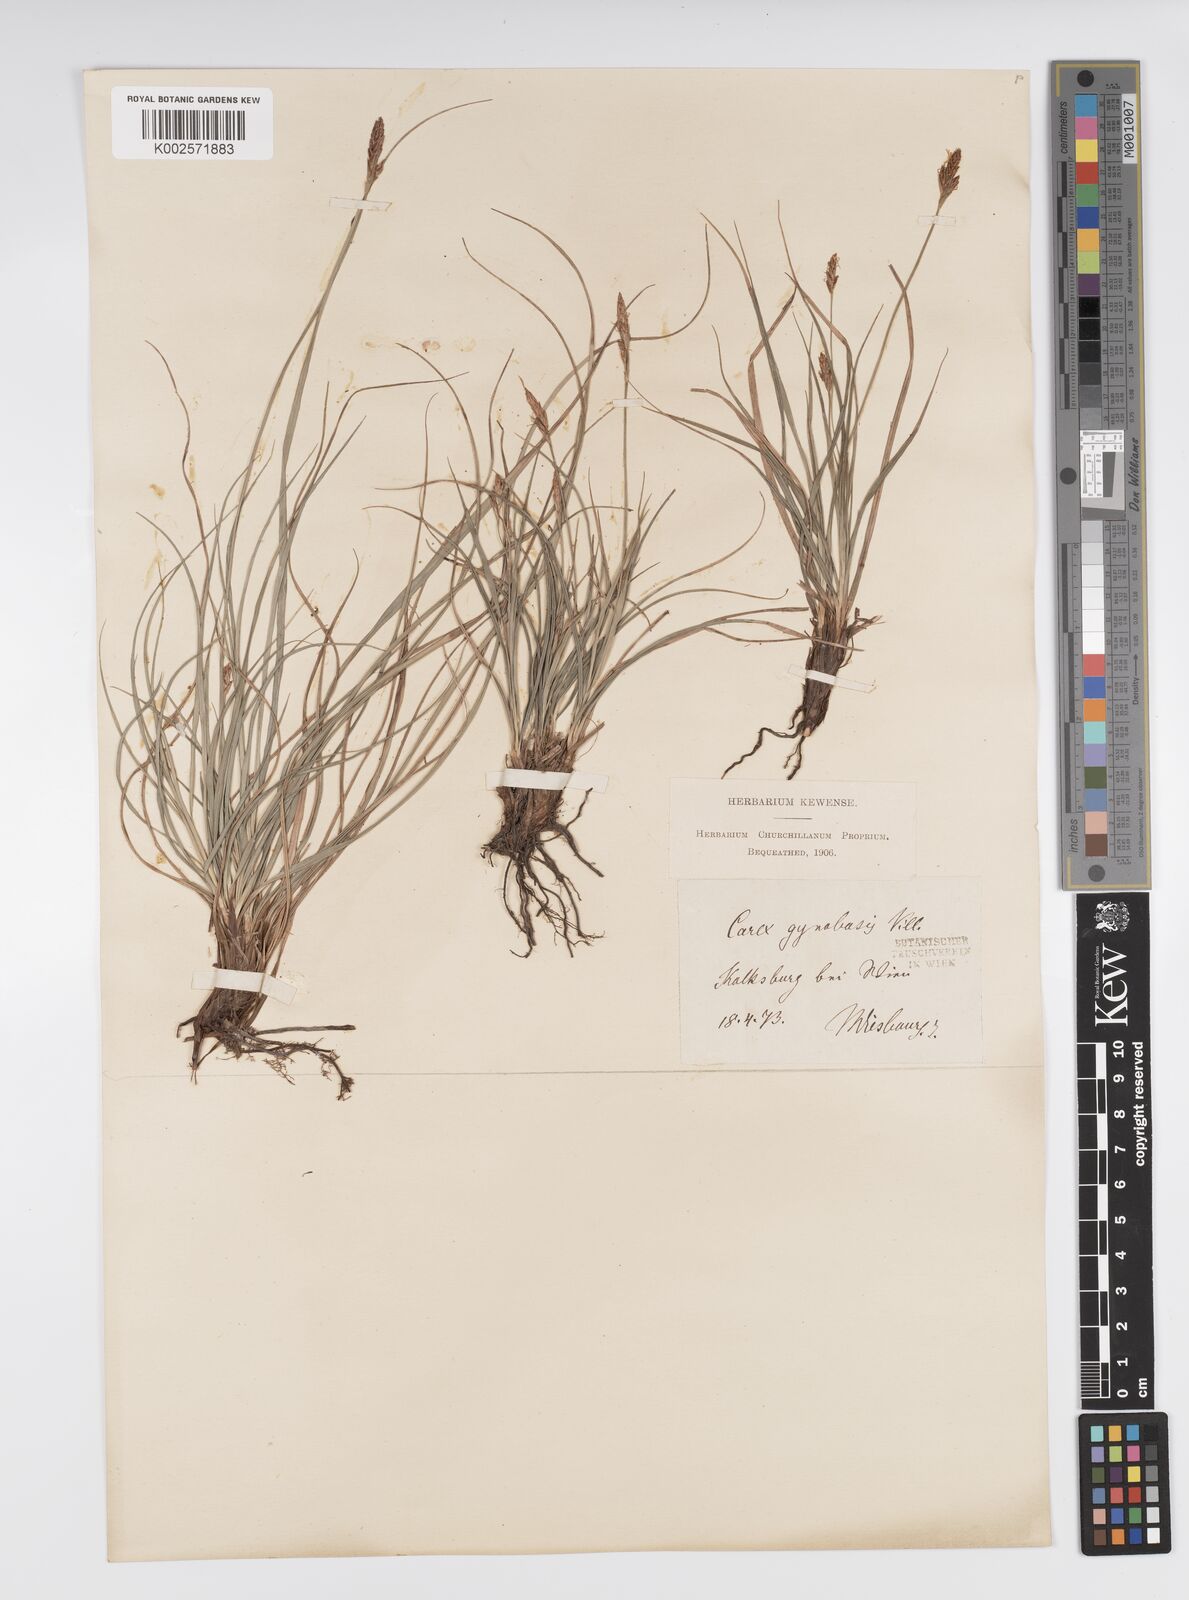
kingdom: Plantae
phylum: Tracheophyta
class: Liliopsida
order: Poales
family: Cyperaceae
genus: Carex
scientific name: Carex halleriana
